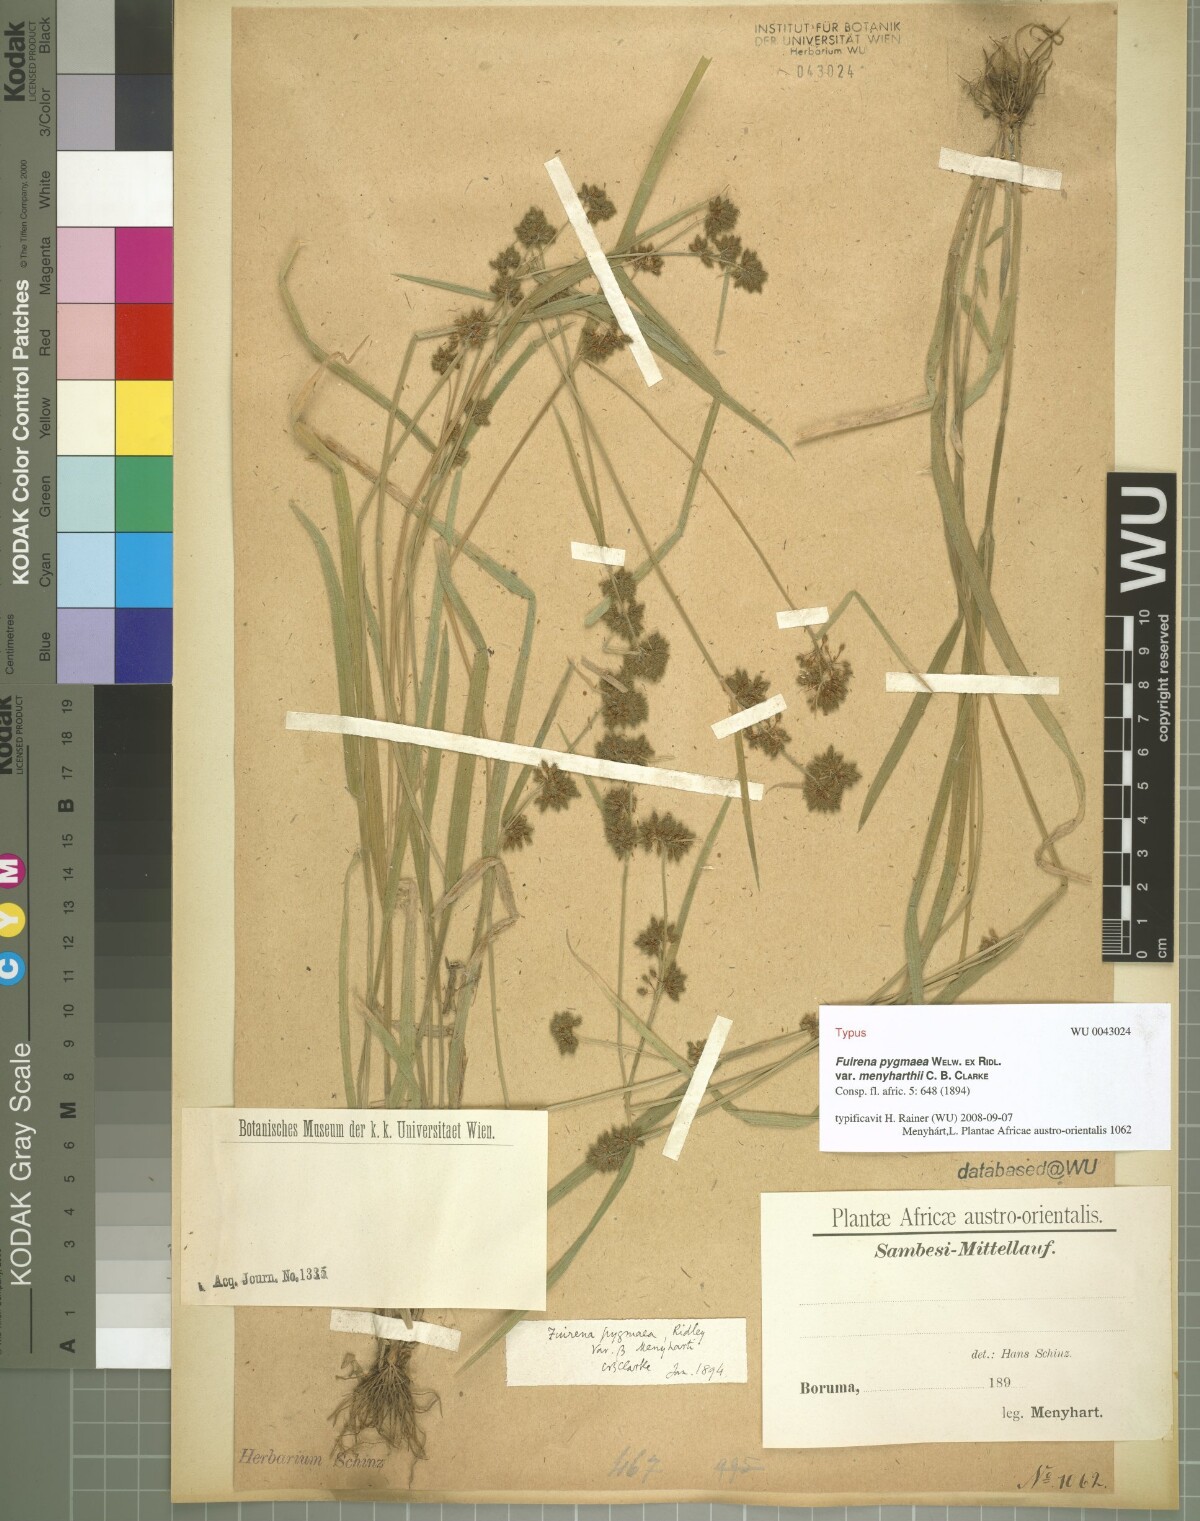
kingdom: Plantae
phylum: Tracheophyta
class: Liliopsida
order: Poales
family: Cyperaceae
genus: Fuirena
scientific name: Fuirena leptostachya
